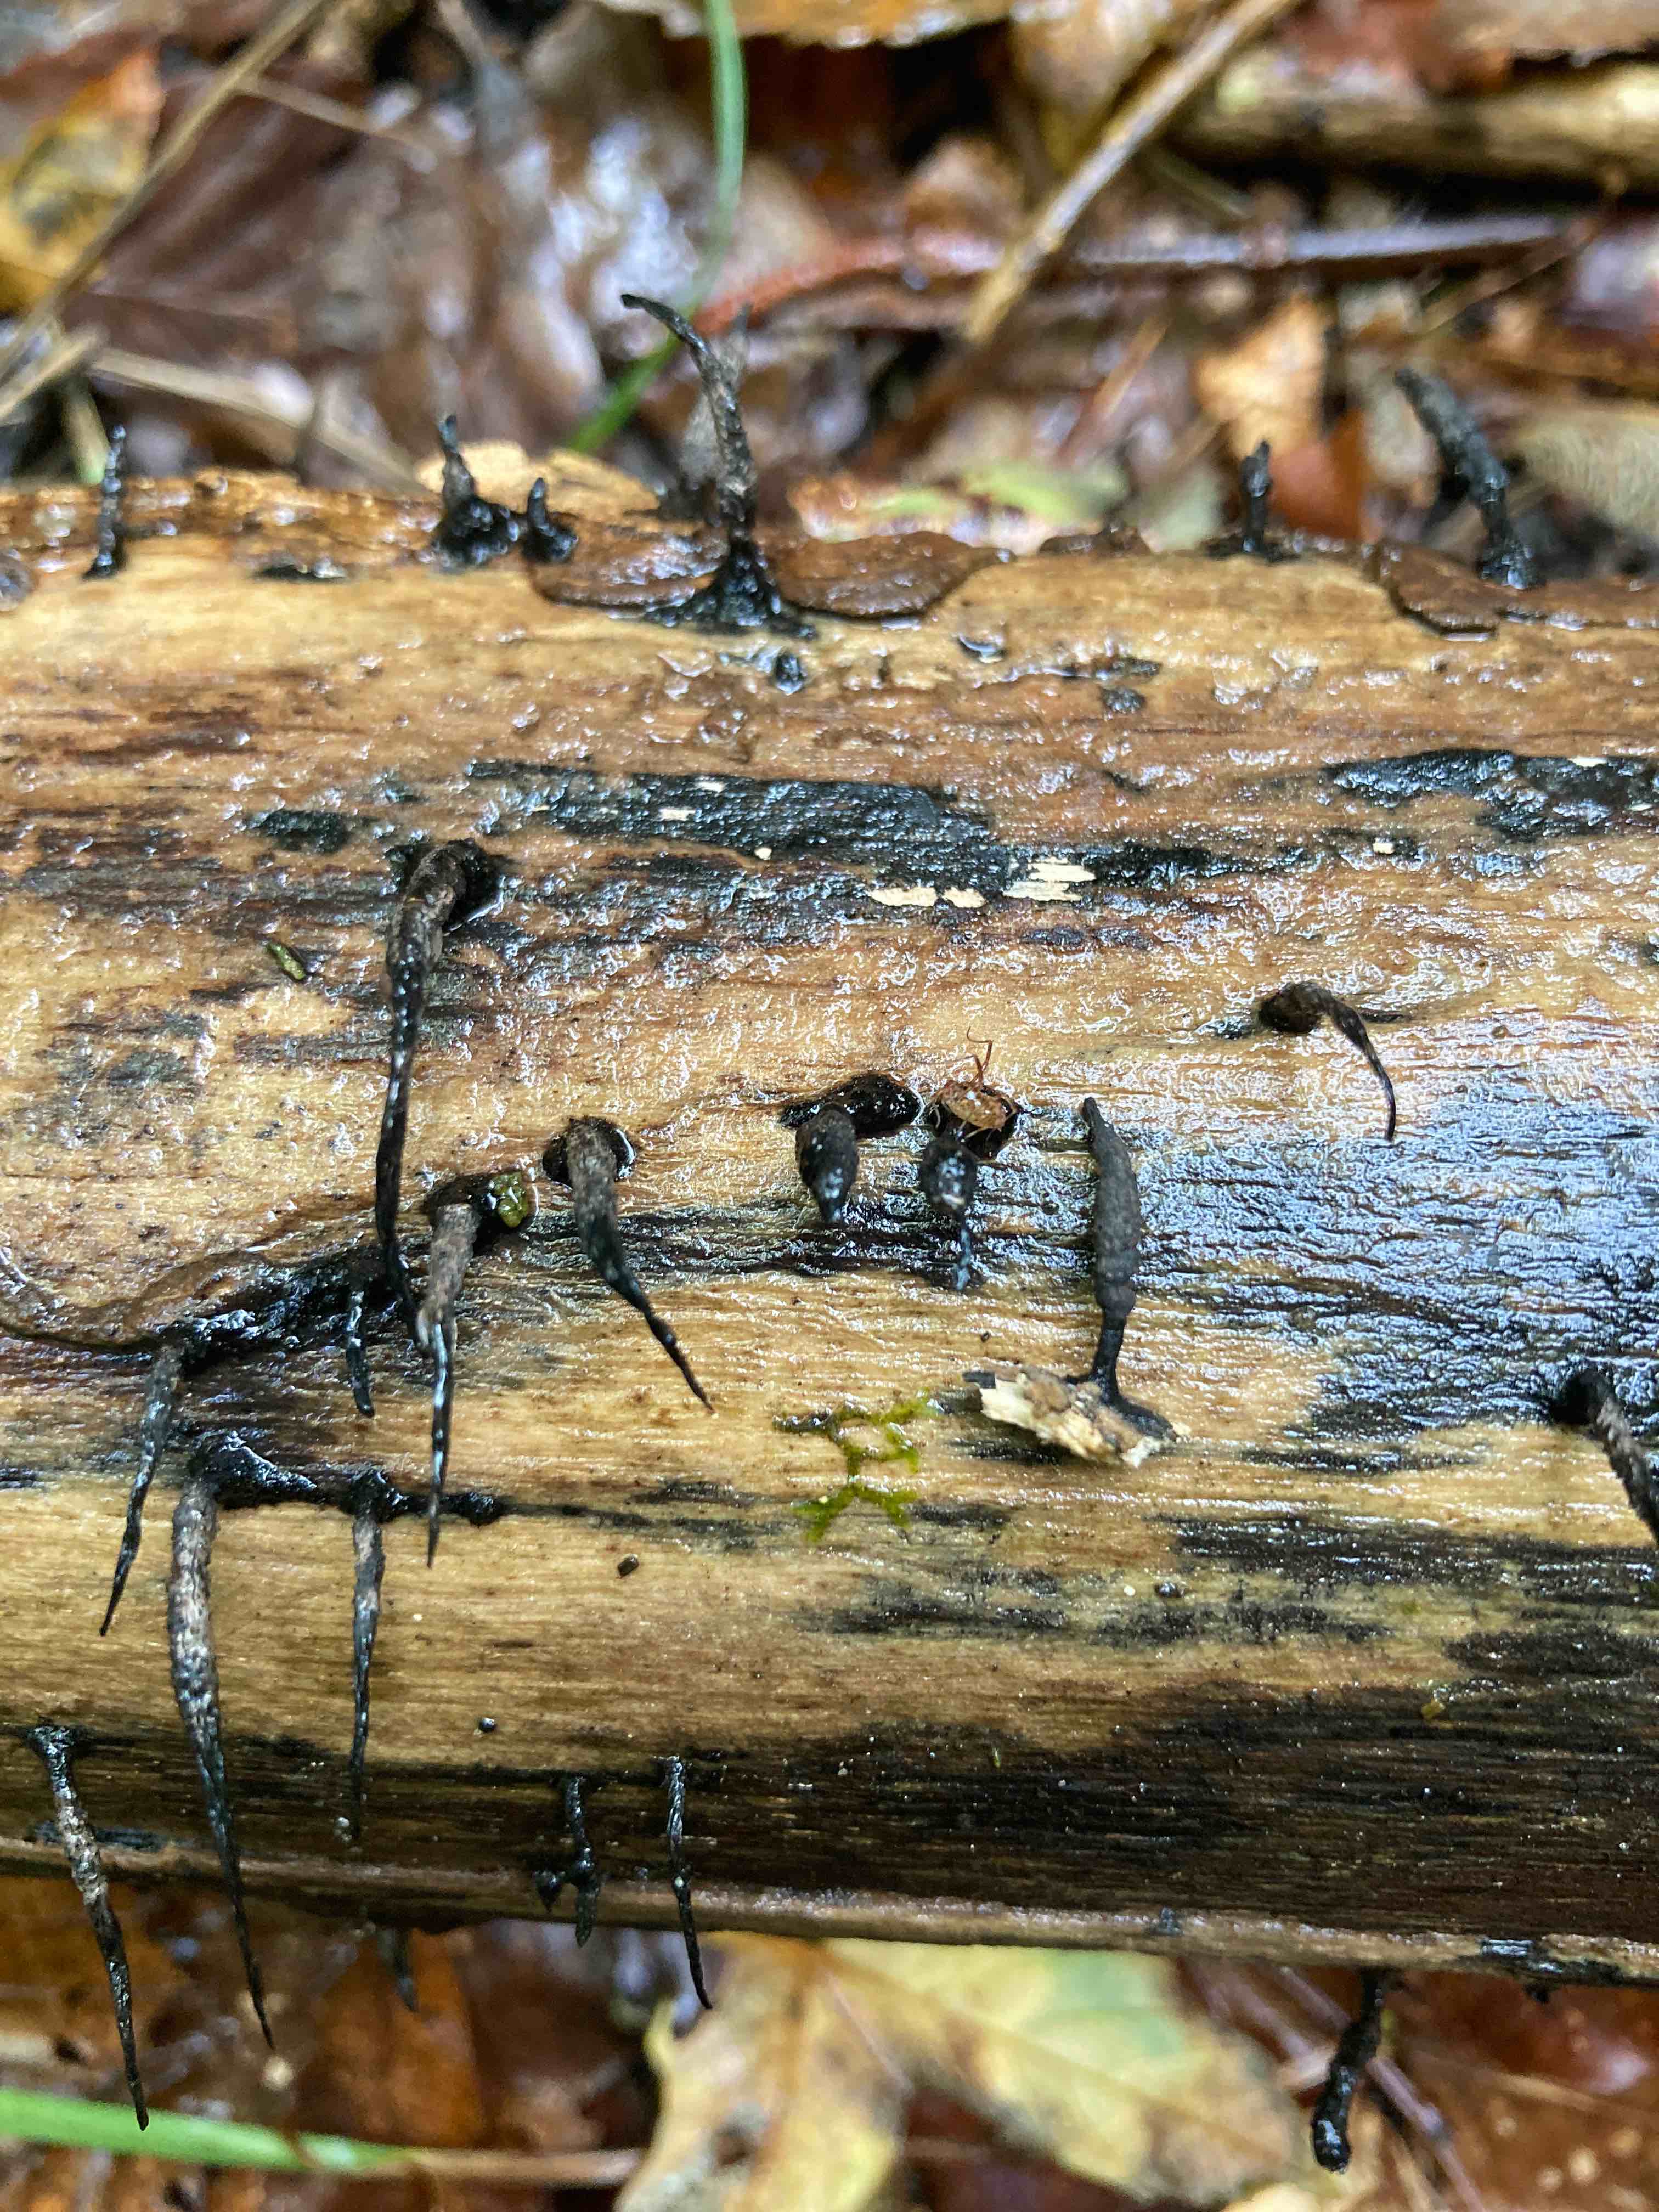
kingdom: Fungi
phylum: Ascomycota
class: Sordariomycetes
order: Xylariales
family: Xylariaceae
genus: Xylaria
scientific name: Xylaria hypoxylon
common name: grenet stødsvamp
